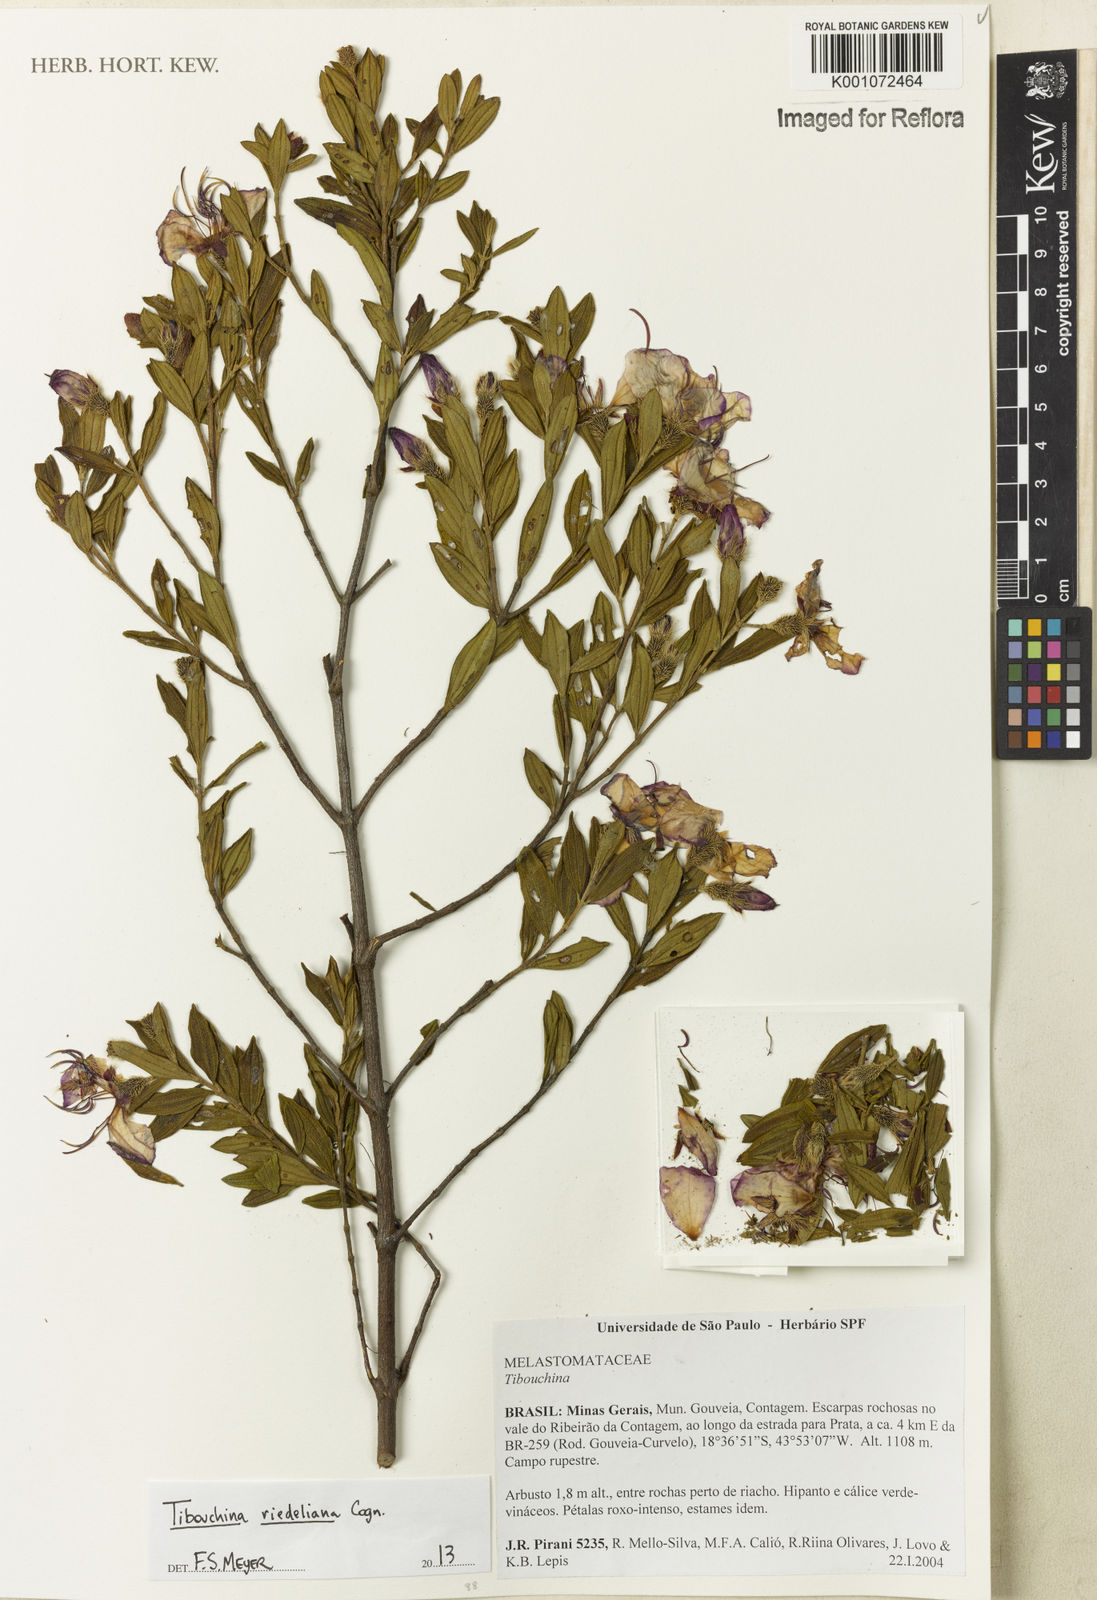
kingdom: Plantae
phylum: Tracheophyta
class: Magnoliopsida
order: Myrtales
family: Melastomataceae
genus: Pleroma
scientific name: Pleroma riedelianum
